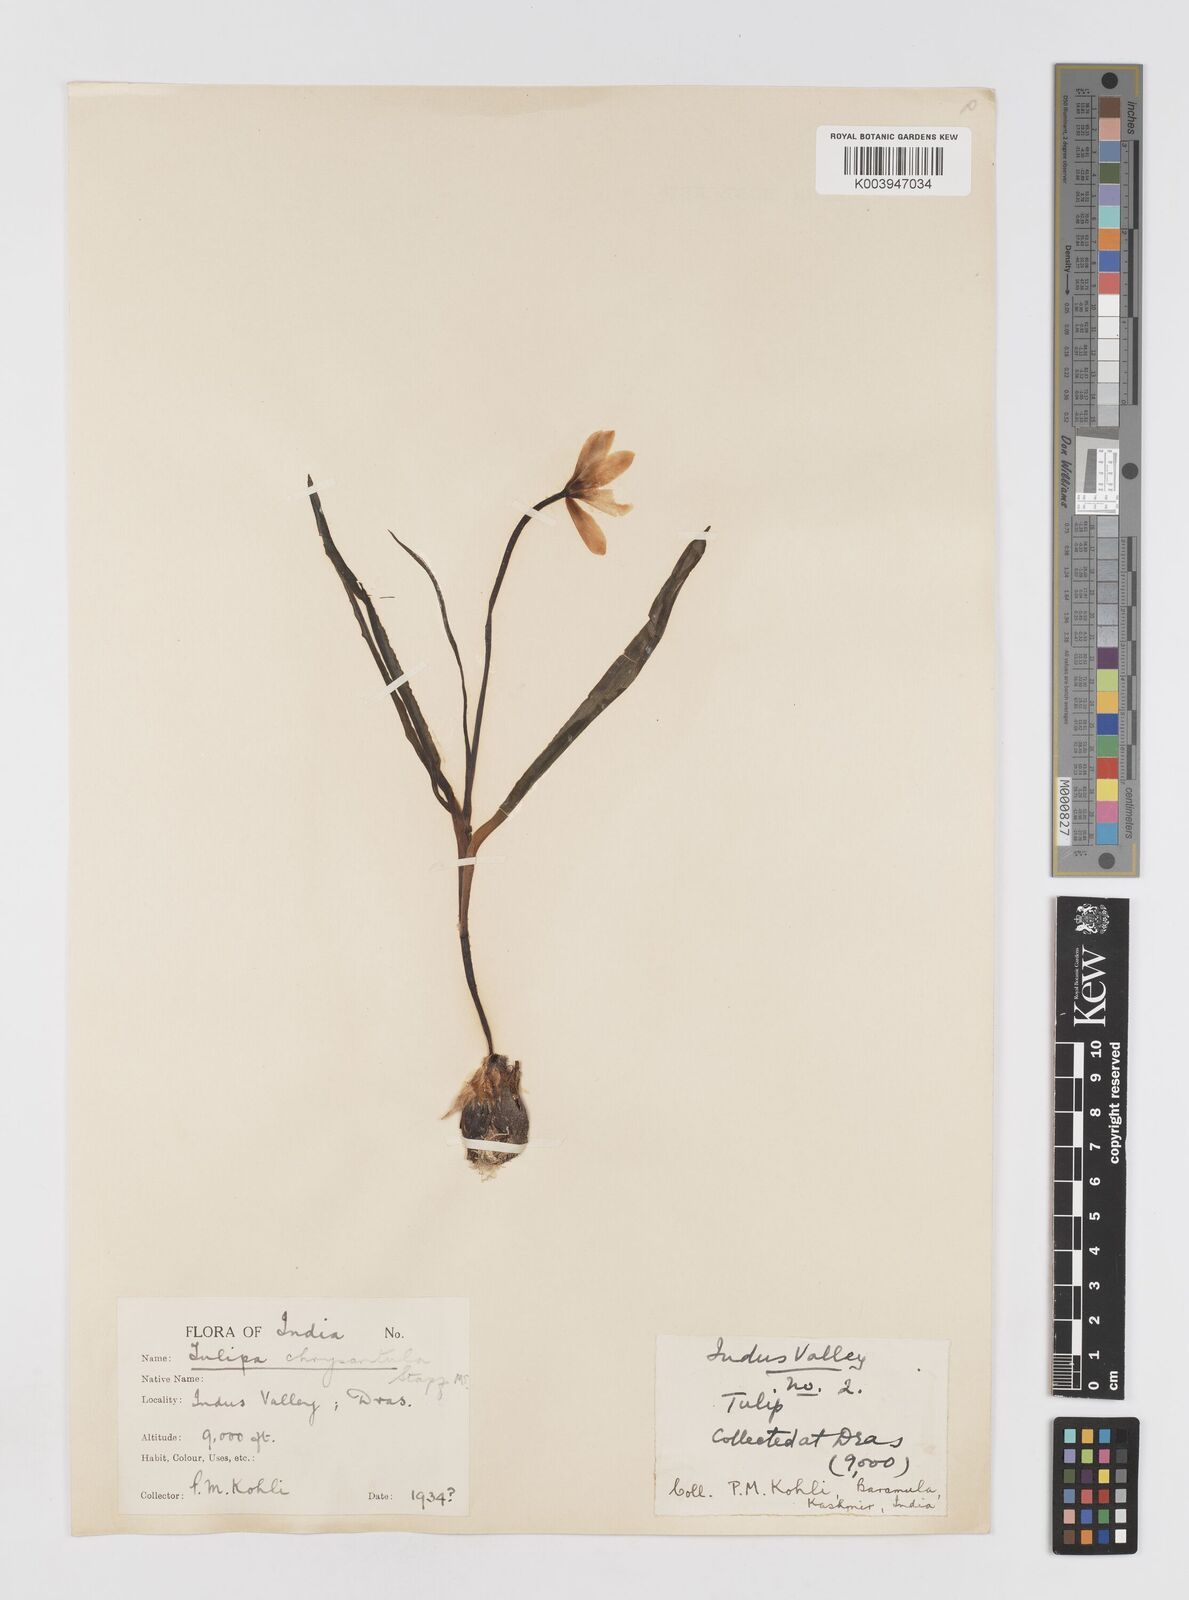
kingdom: Plantae
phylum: Tracheophyta
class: Liliopsida
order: Liliales
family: Liliaceae
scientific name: Liliaceae
